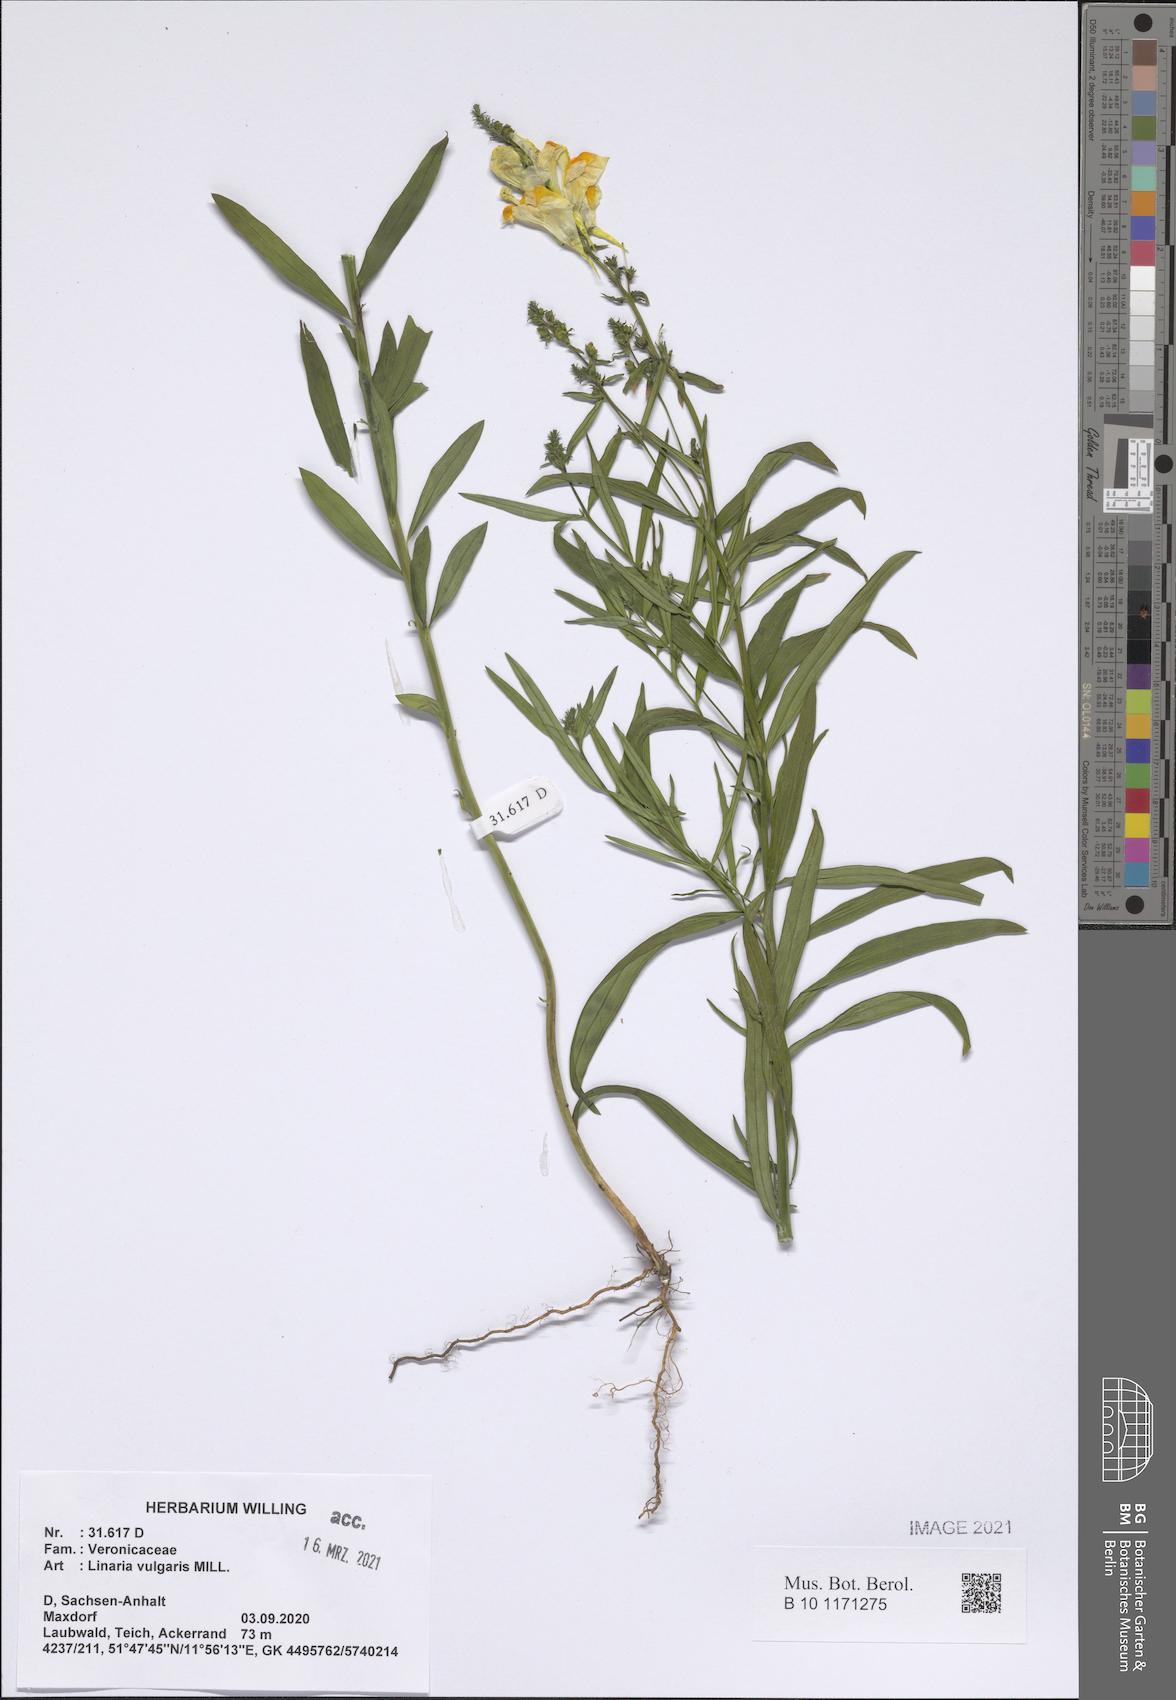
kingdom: Plantae
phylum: Tracheophyta
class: Magnoliopsida
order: Lamiales
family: Plantaginaceae
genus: Linaria
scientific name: Linaria vulgaris
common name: Butter and eggs
